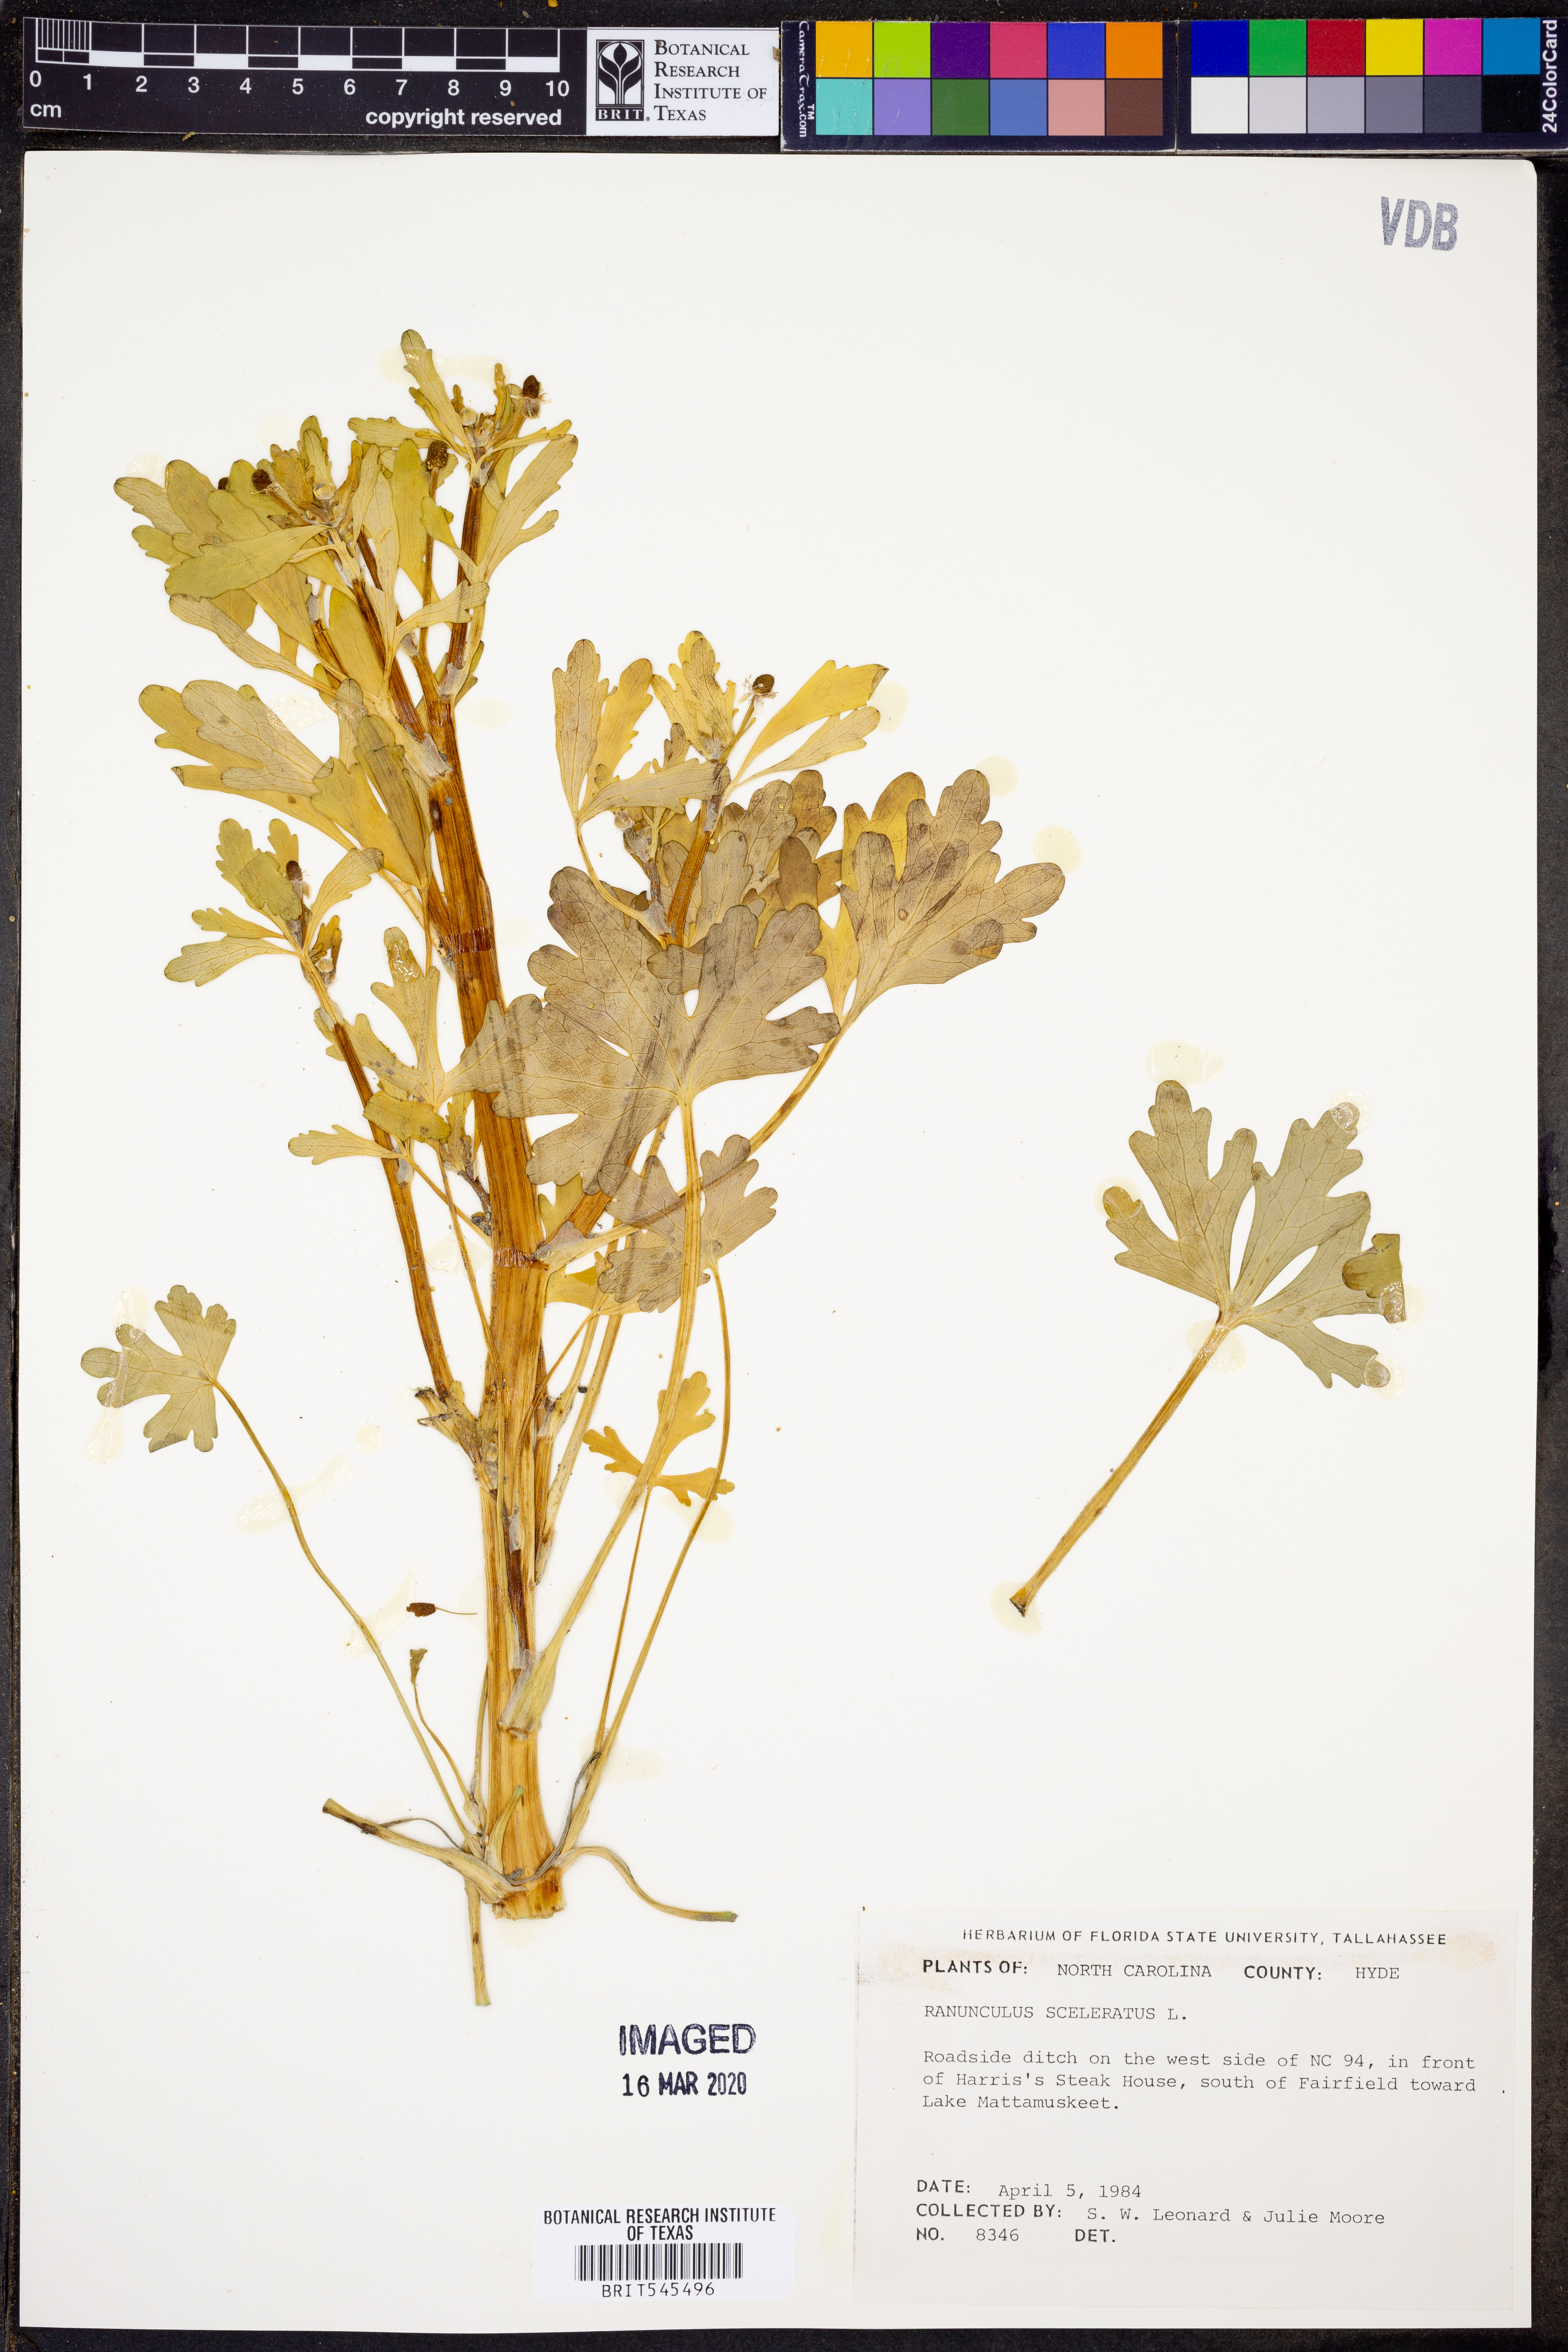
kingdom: Plantae
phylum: Tracheophyta
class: Magnoliopsida
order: Ranunculales
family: Ranunculaceae
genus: Ranunculus
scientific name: Ranunculus sceleratus
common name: Celery-leaved buttercup
